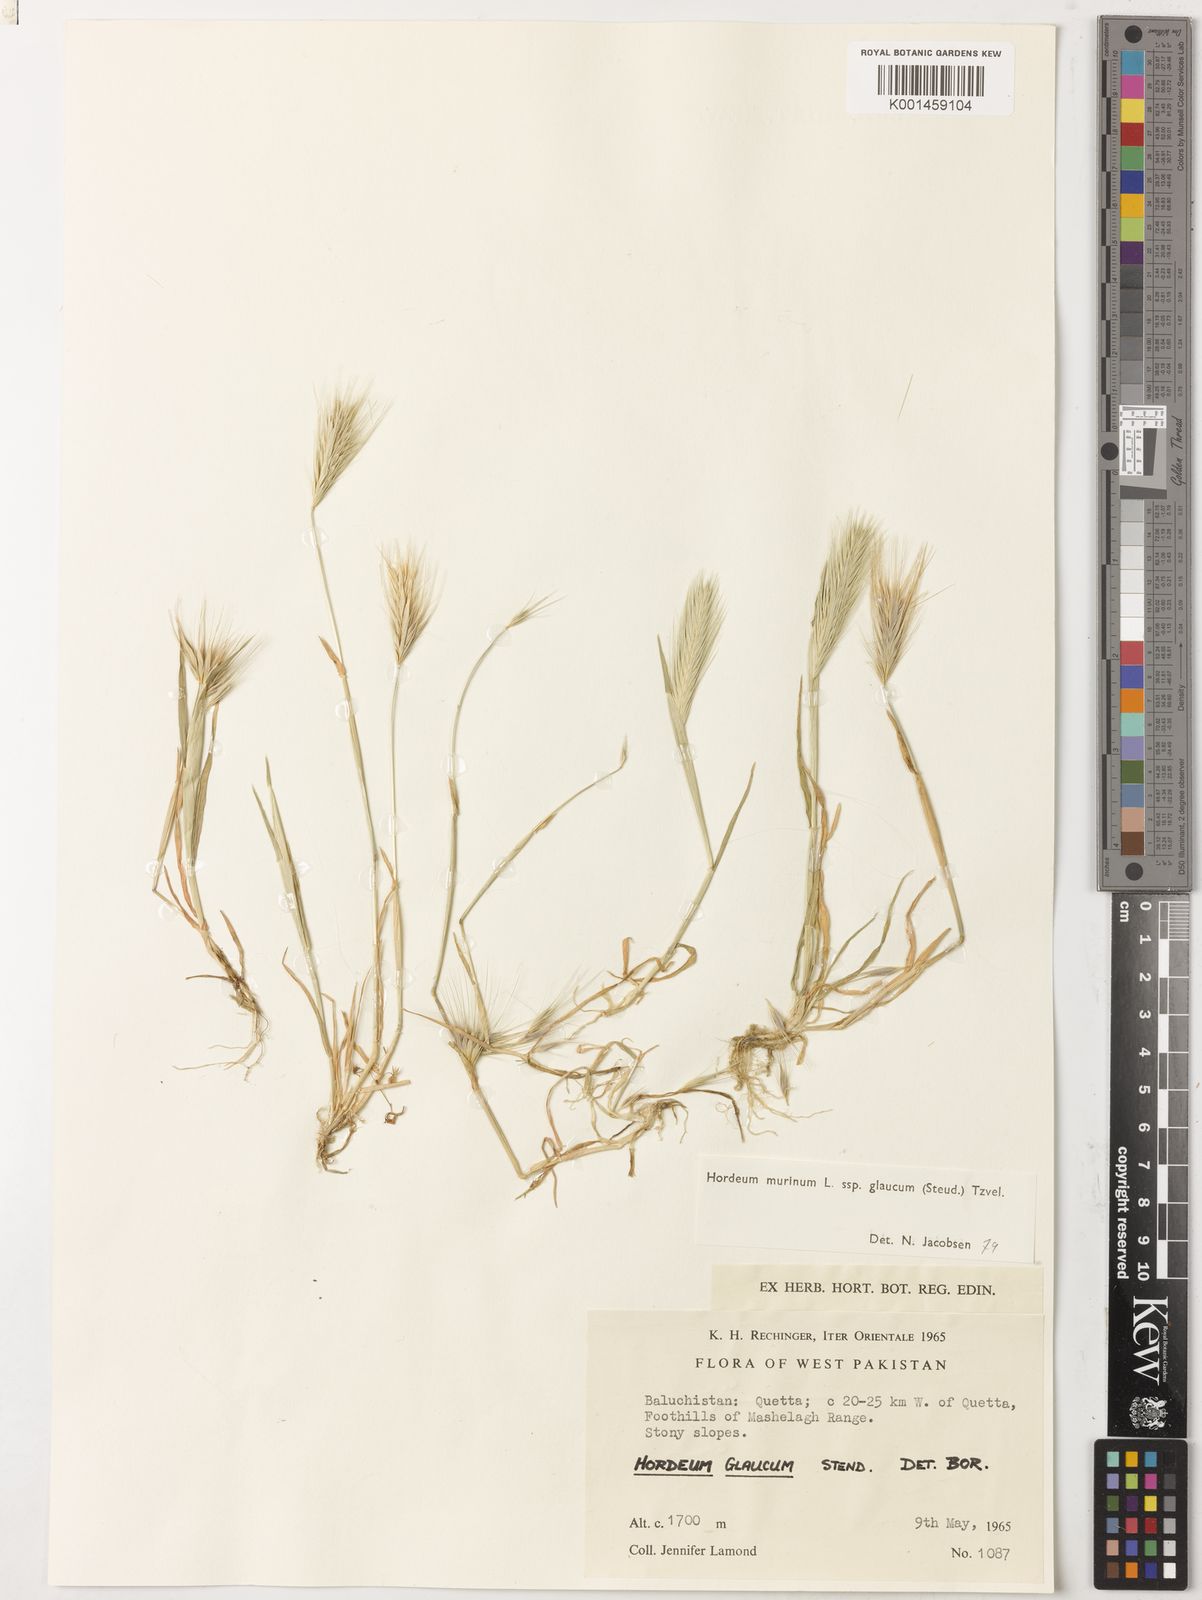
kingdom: Plantae
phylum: Tracheophyta
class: Liliopsida
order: Poales
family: Poaceae
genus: Hordeum
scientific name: Hordeum murinum
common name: Wall barley
